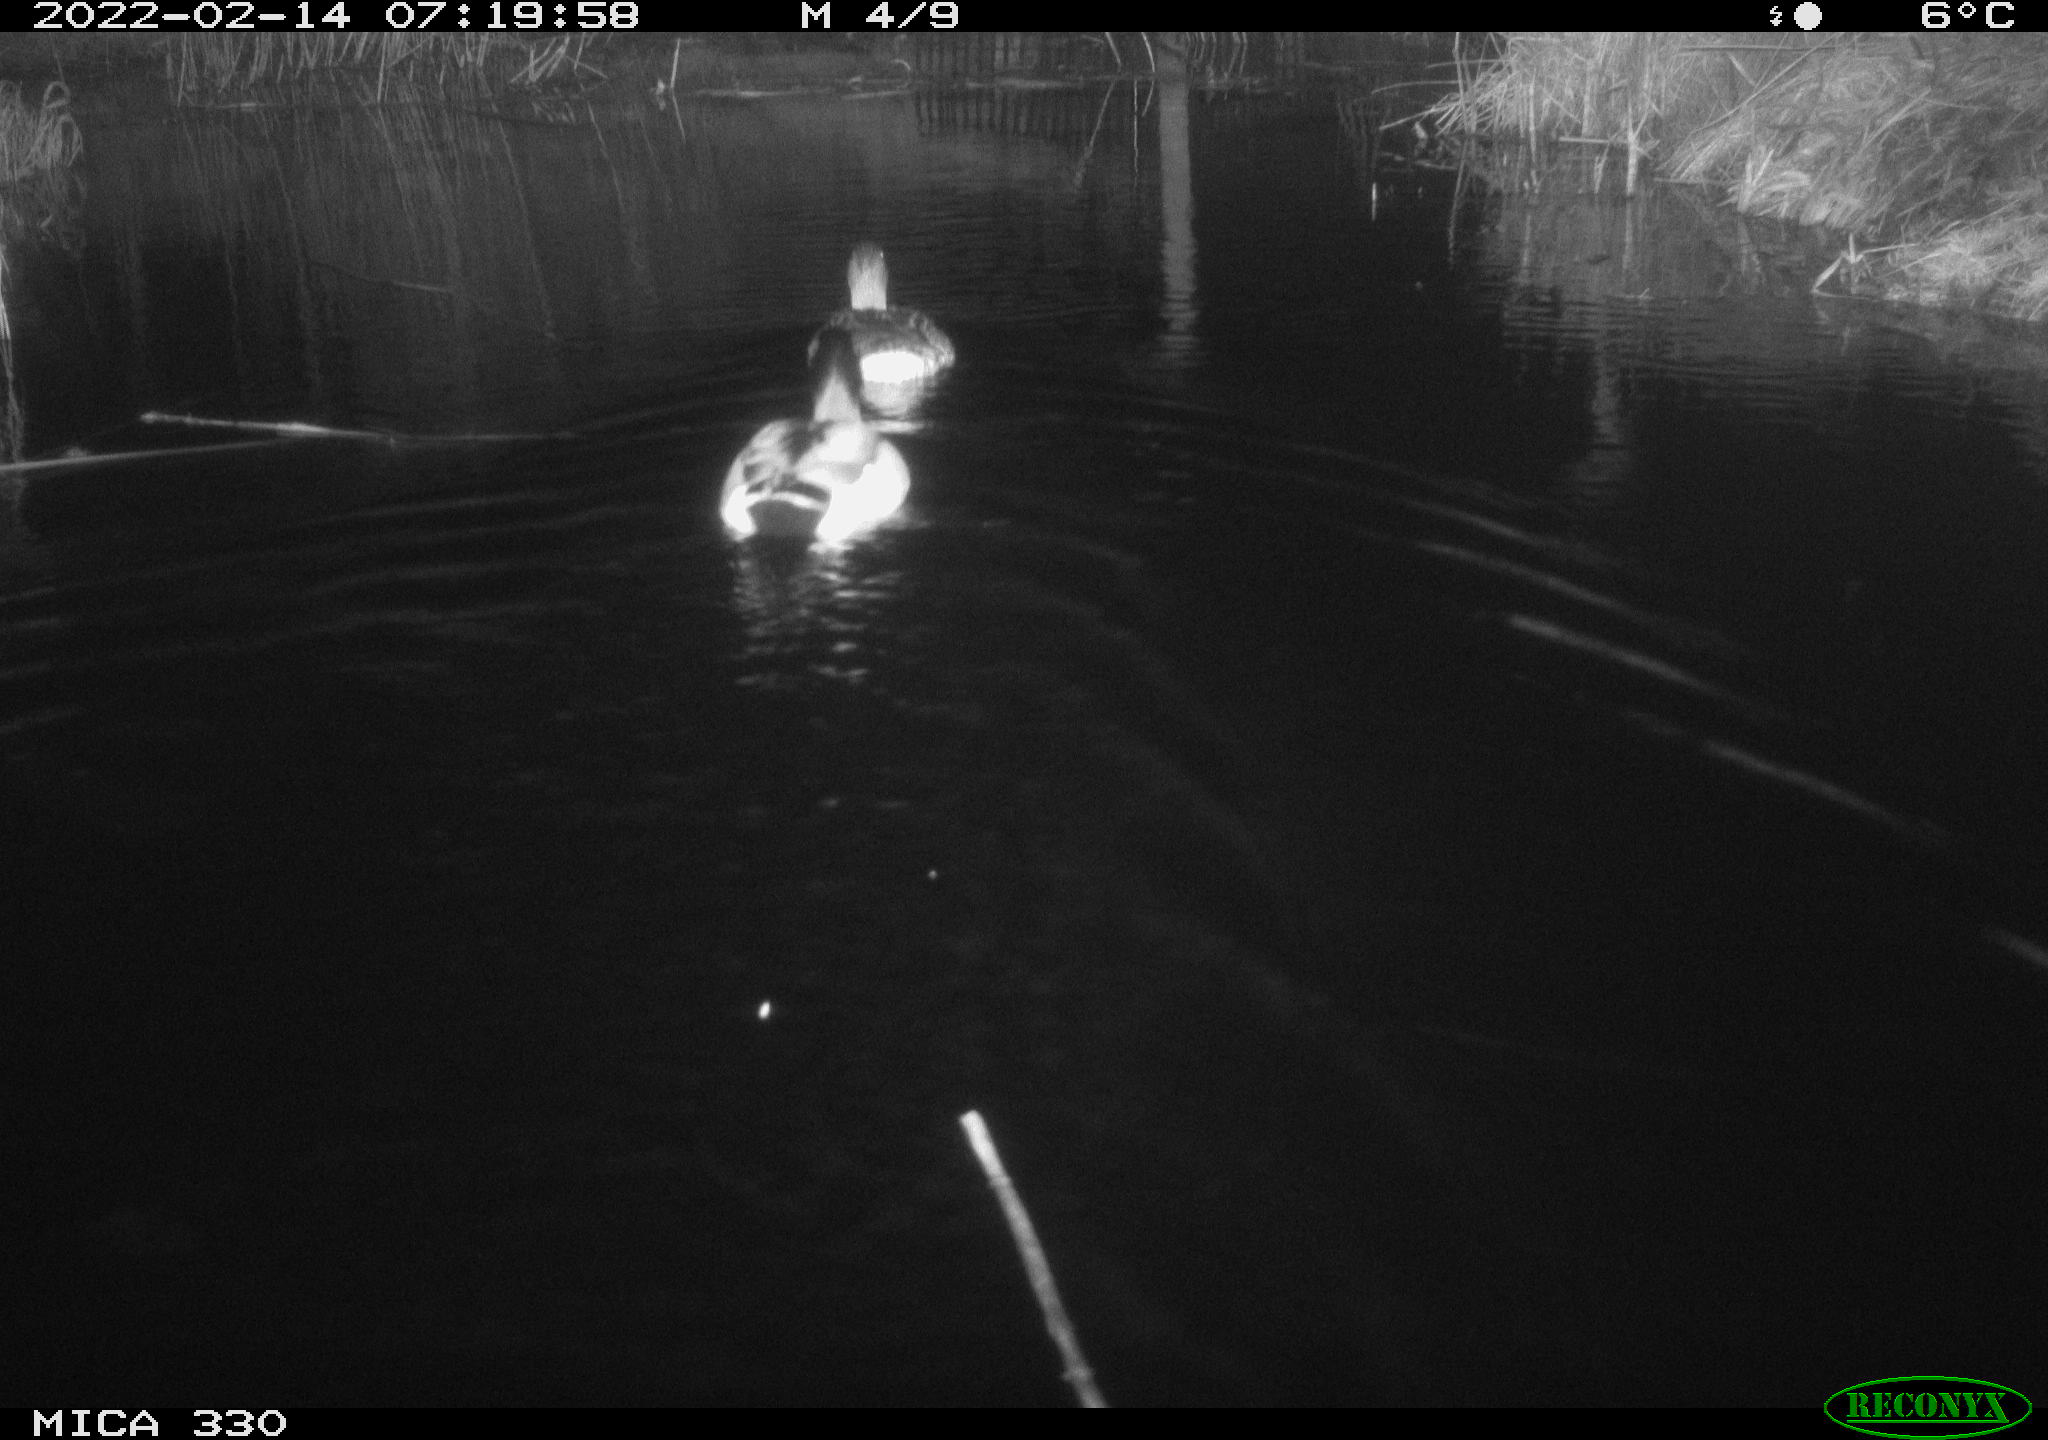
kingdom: Animalia
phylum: Chordata
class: Aves
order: Anseriformes
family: Anatidae
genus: Anas
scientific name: Anas platyrhynchos
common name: Mallard
